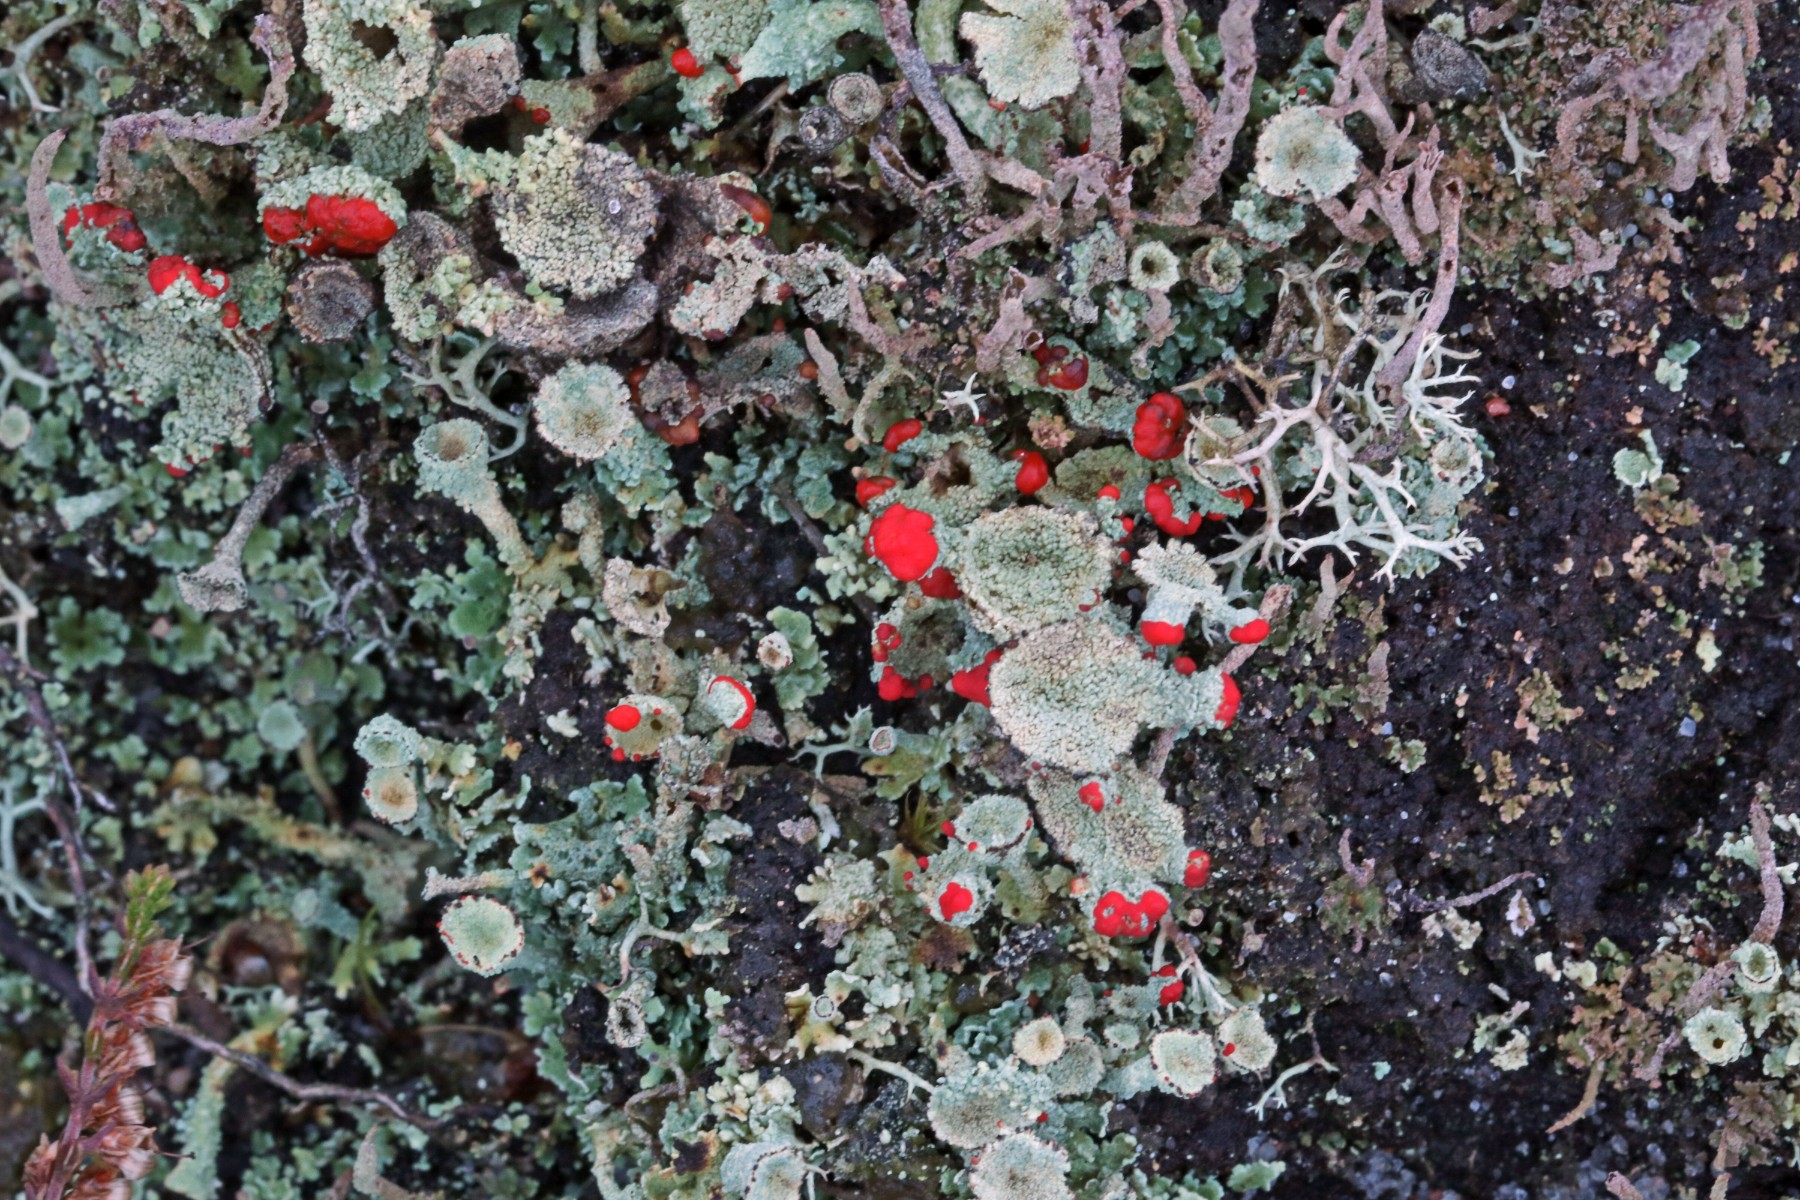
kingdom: Fungi
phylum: Ascomycota
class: Lecanoromycetes
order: Lecanorales
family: Cladoniaceae
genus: Cladonia
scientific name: Cladonia diversa
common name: rød bægerlav
